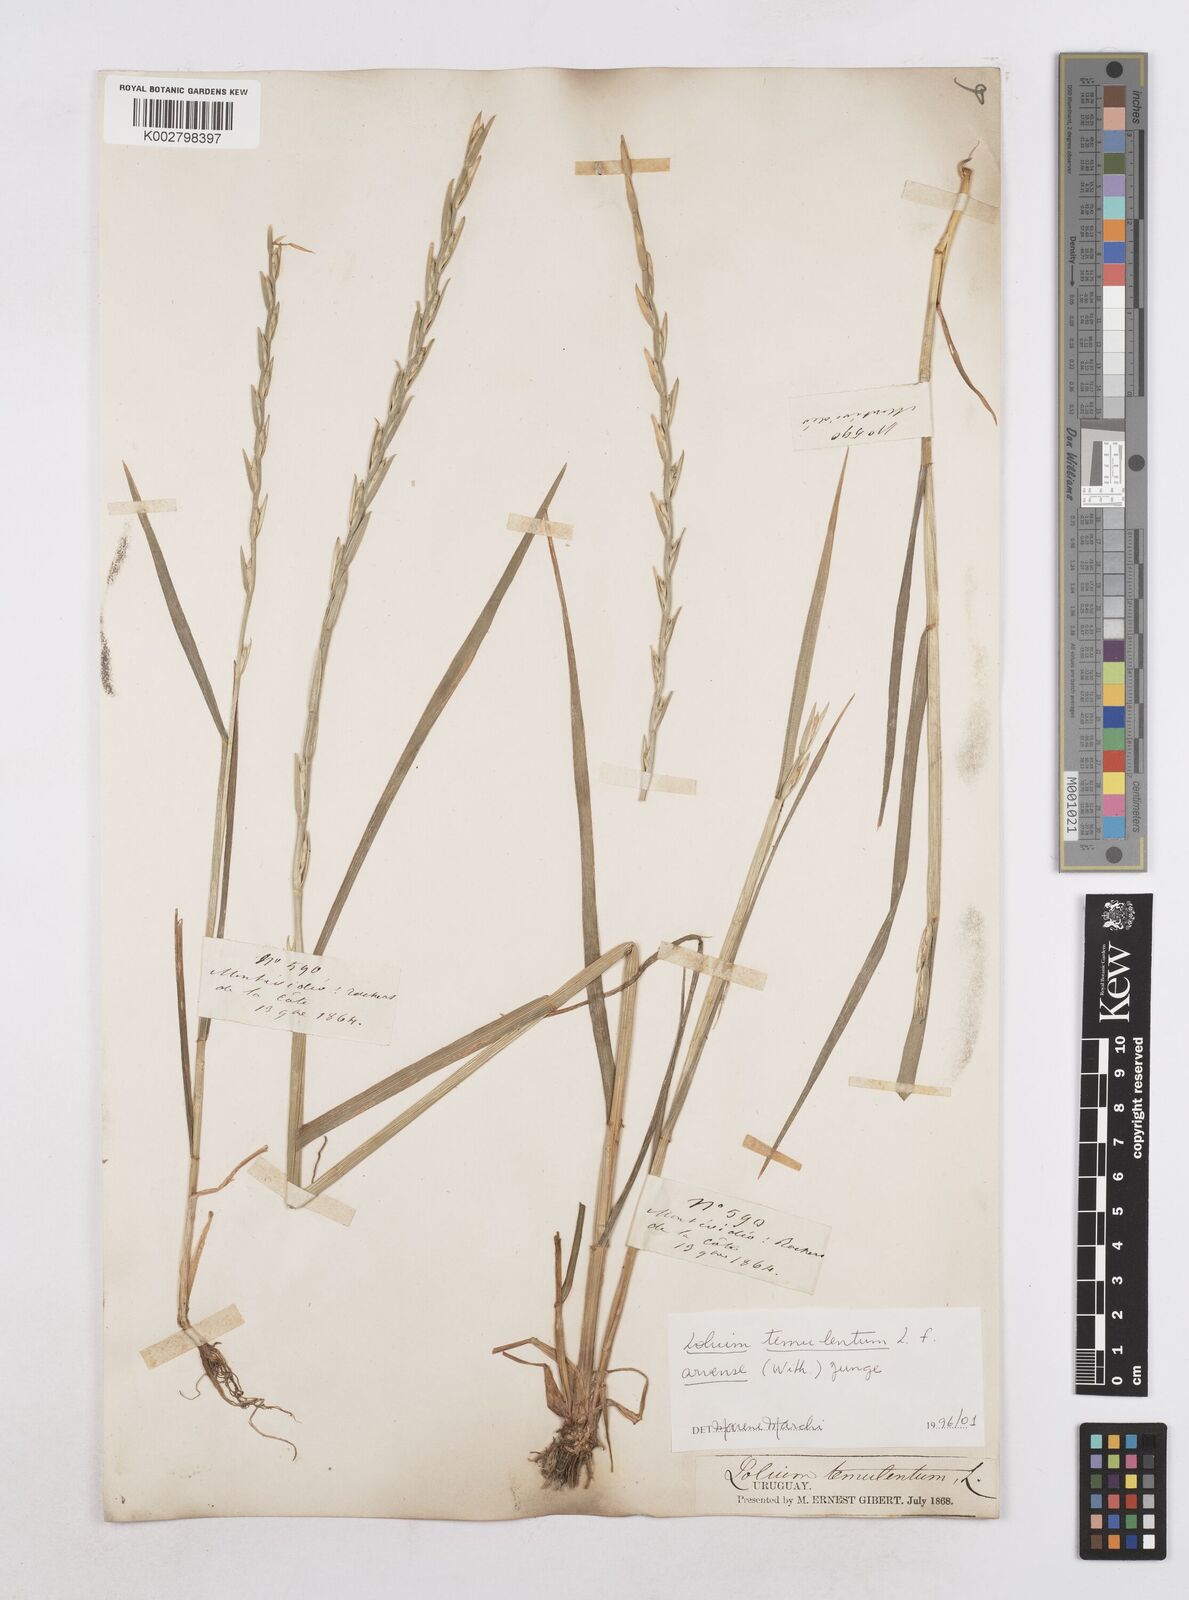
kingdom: Plantae
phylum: Tracheophyta
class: Liliopsida
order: Poales
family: Poaceae
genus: Lolium
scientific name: Lolium temulentum
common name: Darnel
